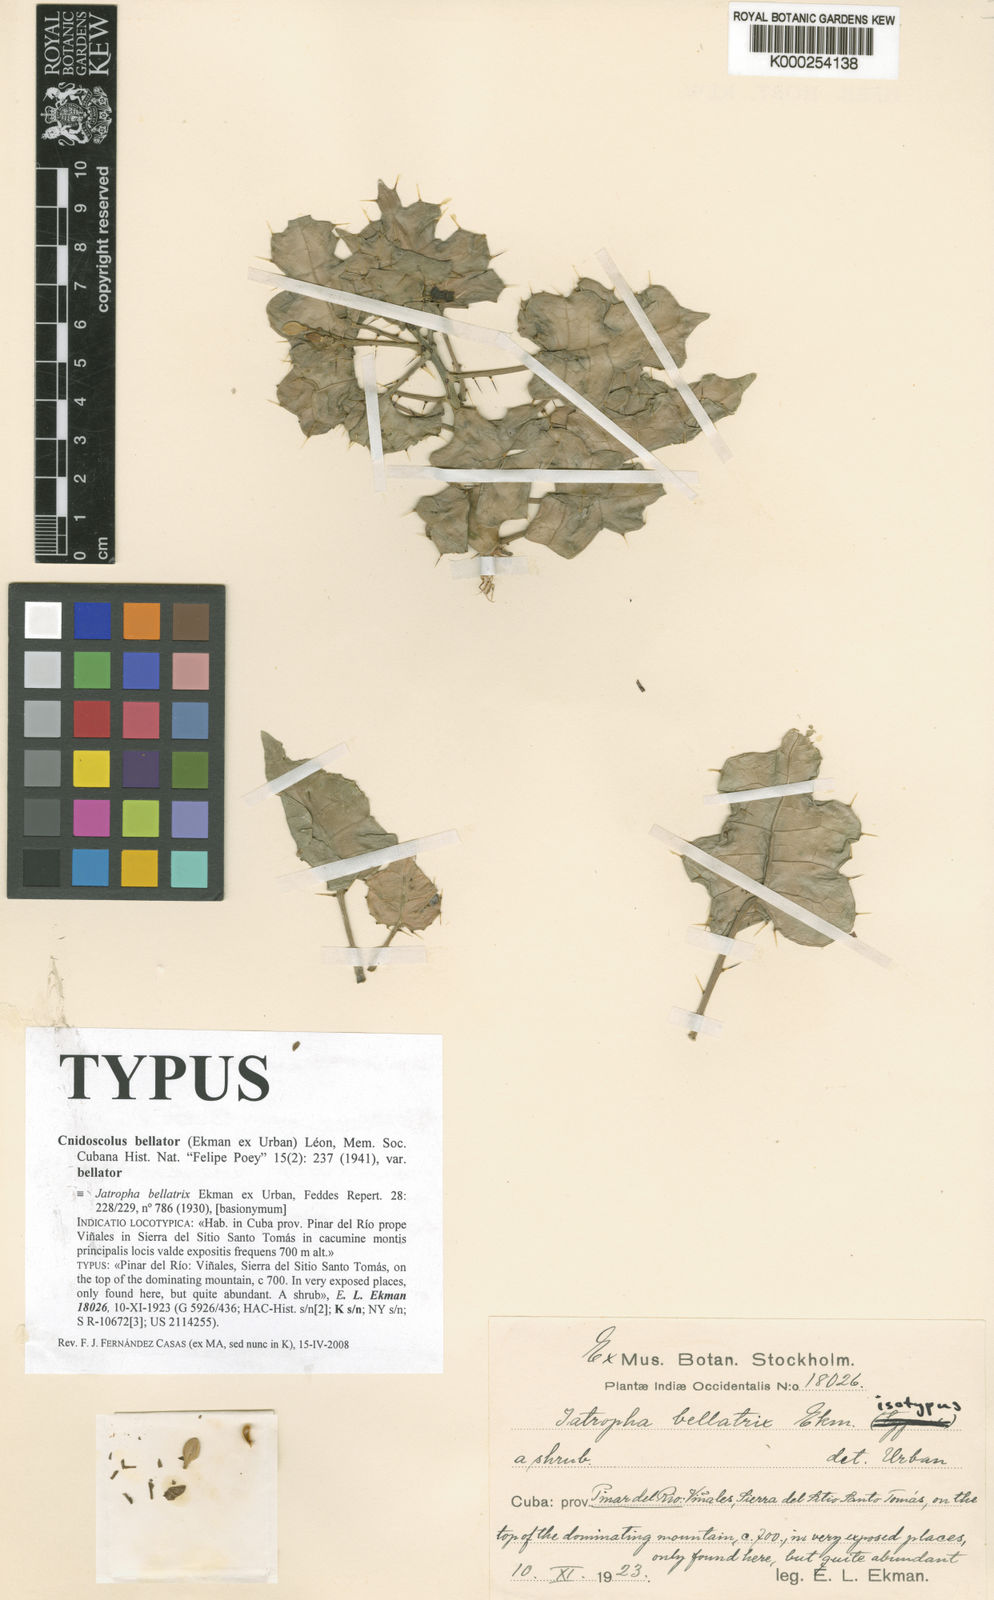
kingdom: Plantae
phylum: Tracheophyta
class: Magnoliopsida
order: Malpighiales
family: Euphorbiaceae
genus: Cnidoscolus
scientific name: Cnidoscolus
